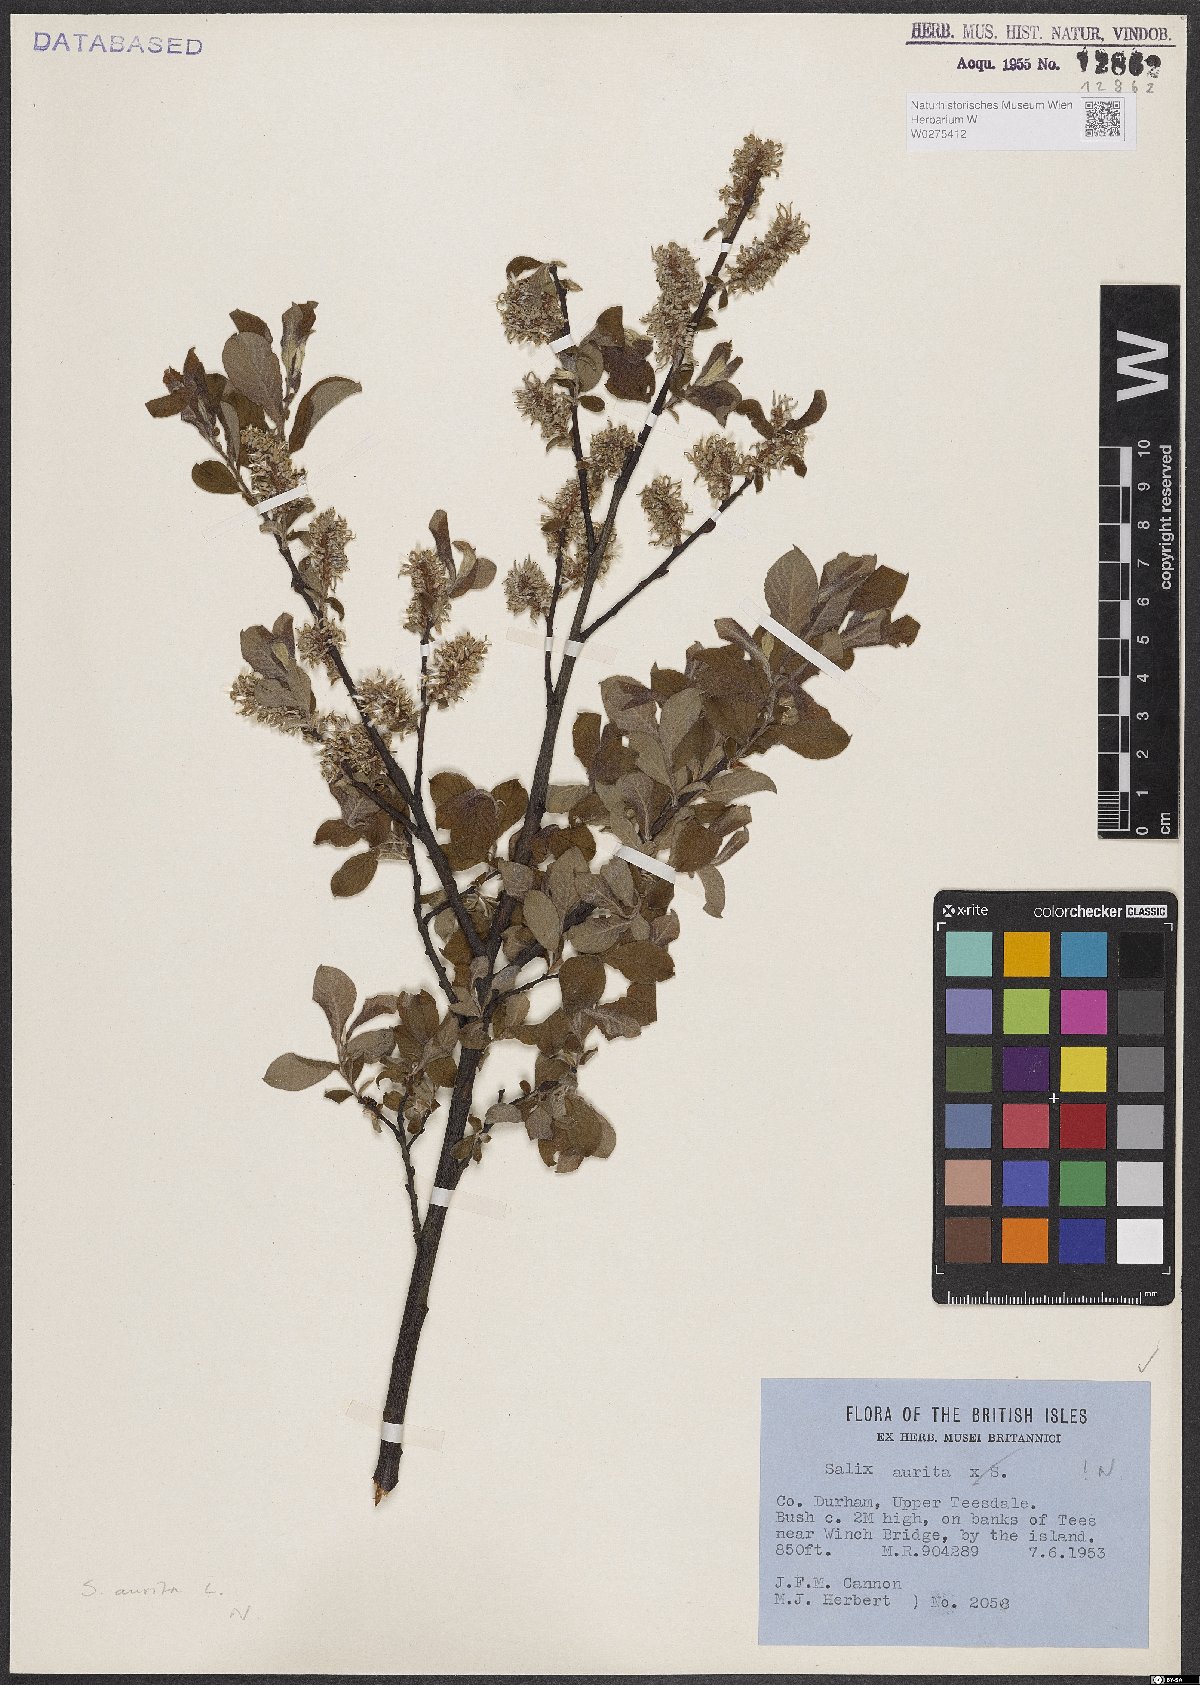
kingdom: Plantae
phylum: Tracheophyta
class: Magnoliopsida
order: Malpighiales
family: Salicaceae
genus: Salix
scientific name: Salix aurita
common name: Eared willow
